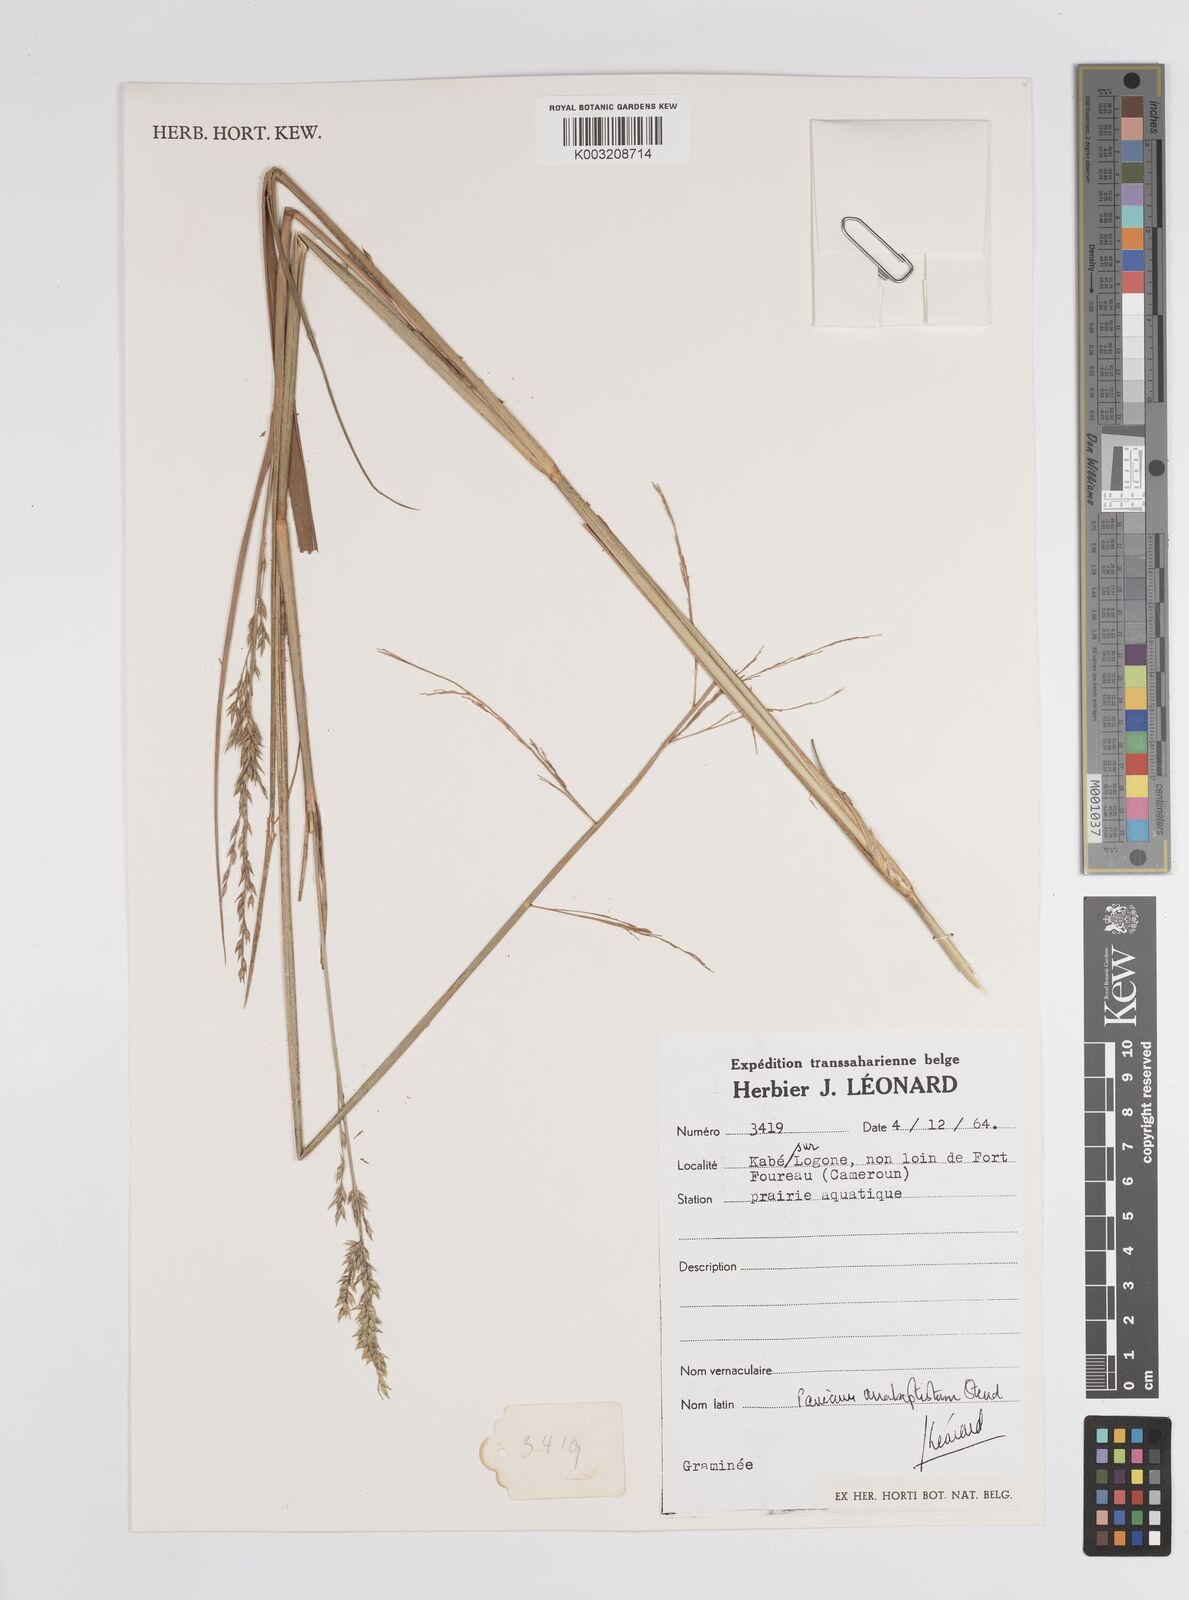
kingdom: Plantae
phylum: Tracheophyta
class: Liliopsida
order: Poales
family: Poaceae
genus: Panicum
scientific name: Panicum anabaptistum
